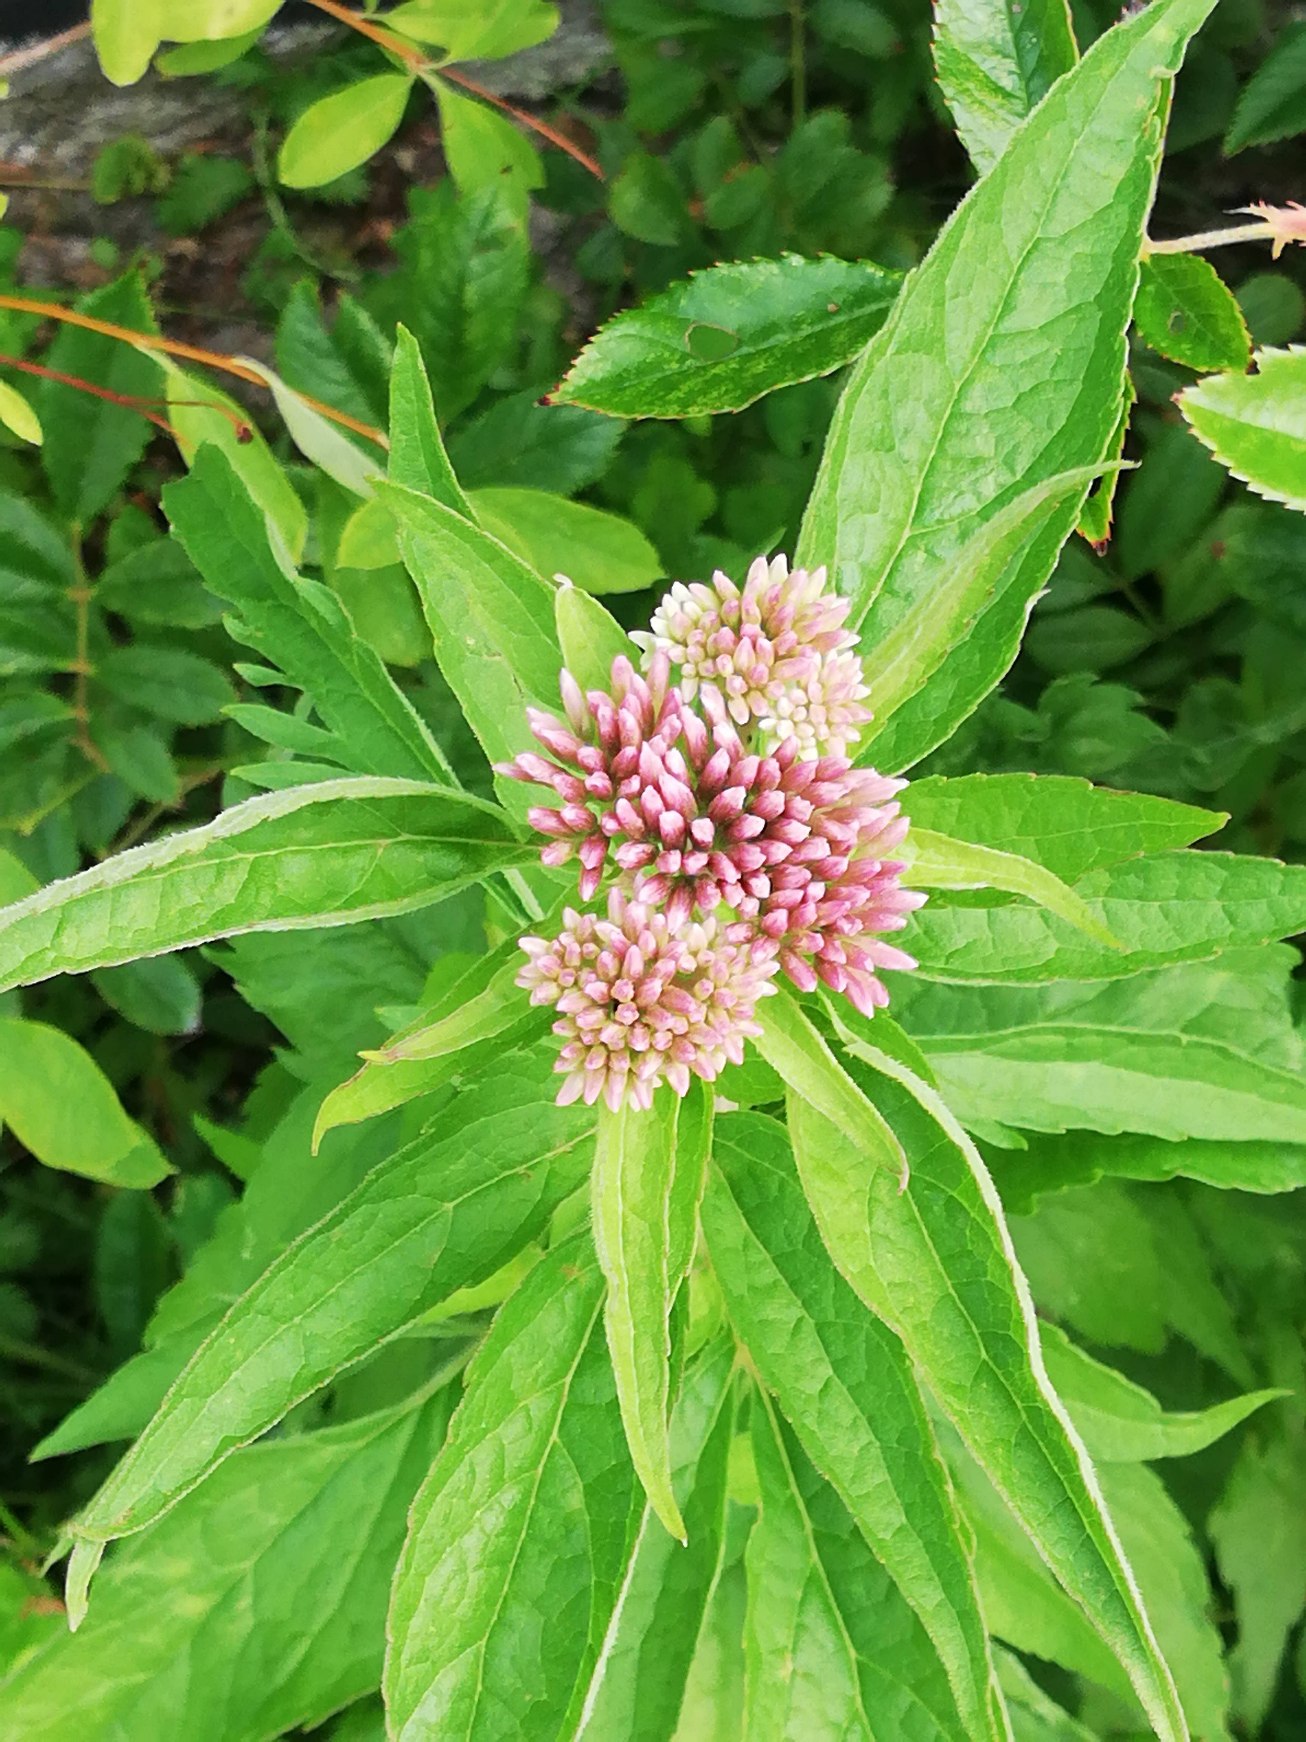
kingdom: Plantae
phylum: Tracheophyta
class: Magnoliopsida
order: Asterales
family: Asteraceae
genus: Eupatorium
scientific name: Eupatorium cannabinum
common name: Hjortetrøst
